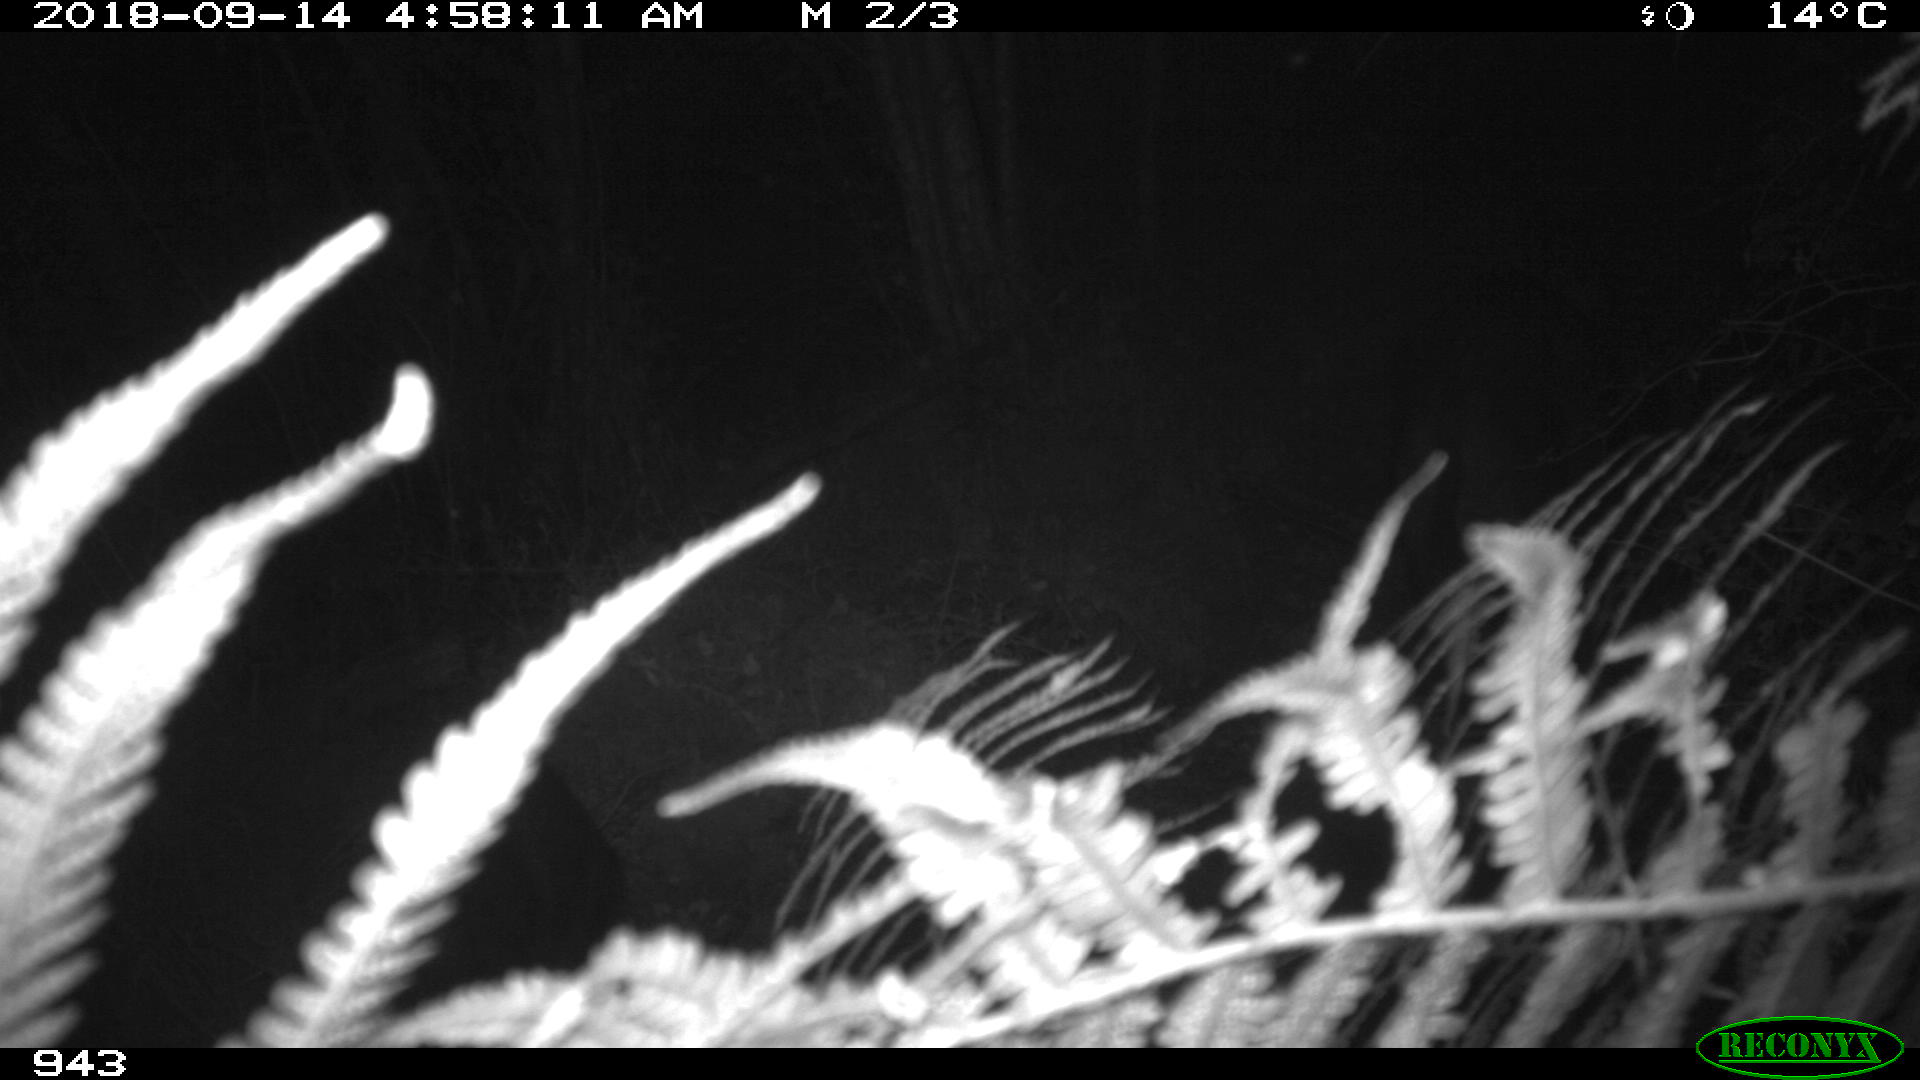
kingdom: Animalia
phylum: Chordata
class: Mammalia
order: Artiodactyla
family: Suidae
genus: Sus
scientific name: Sus scrofa
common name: Wild boar
